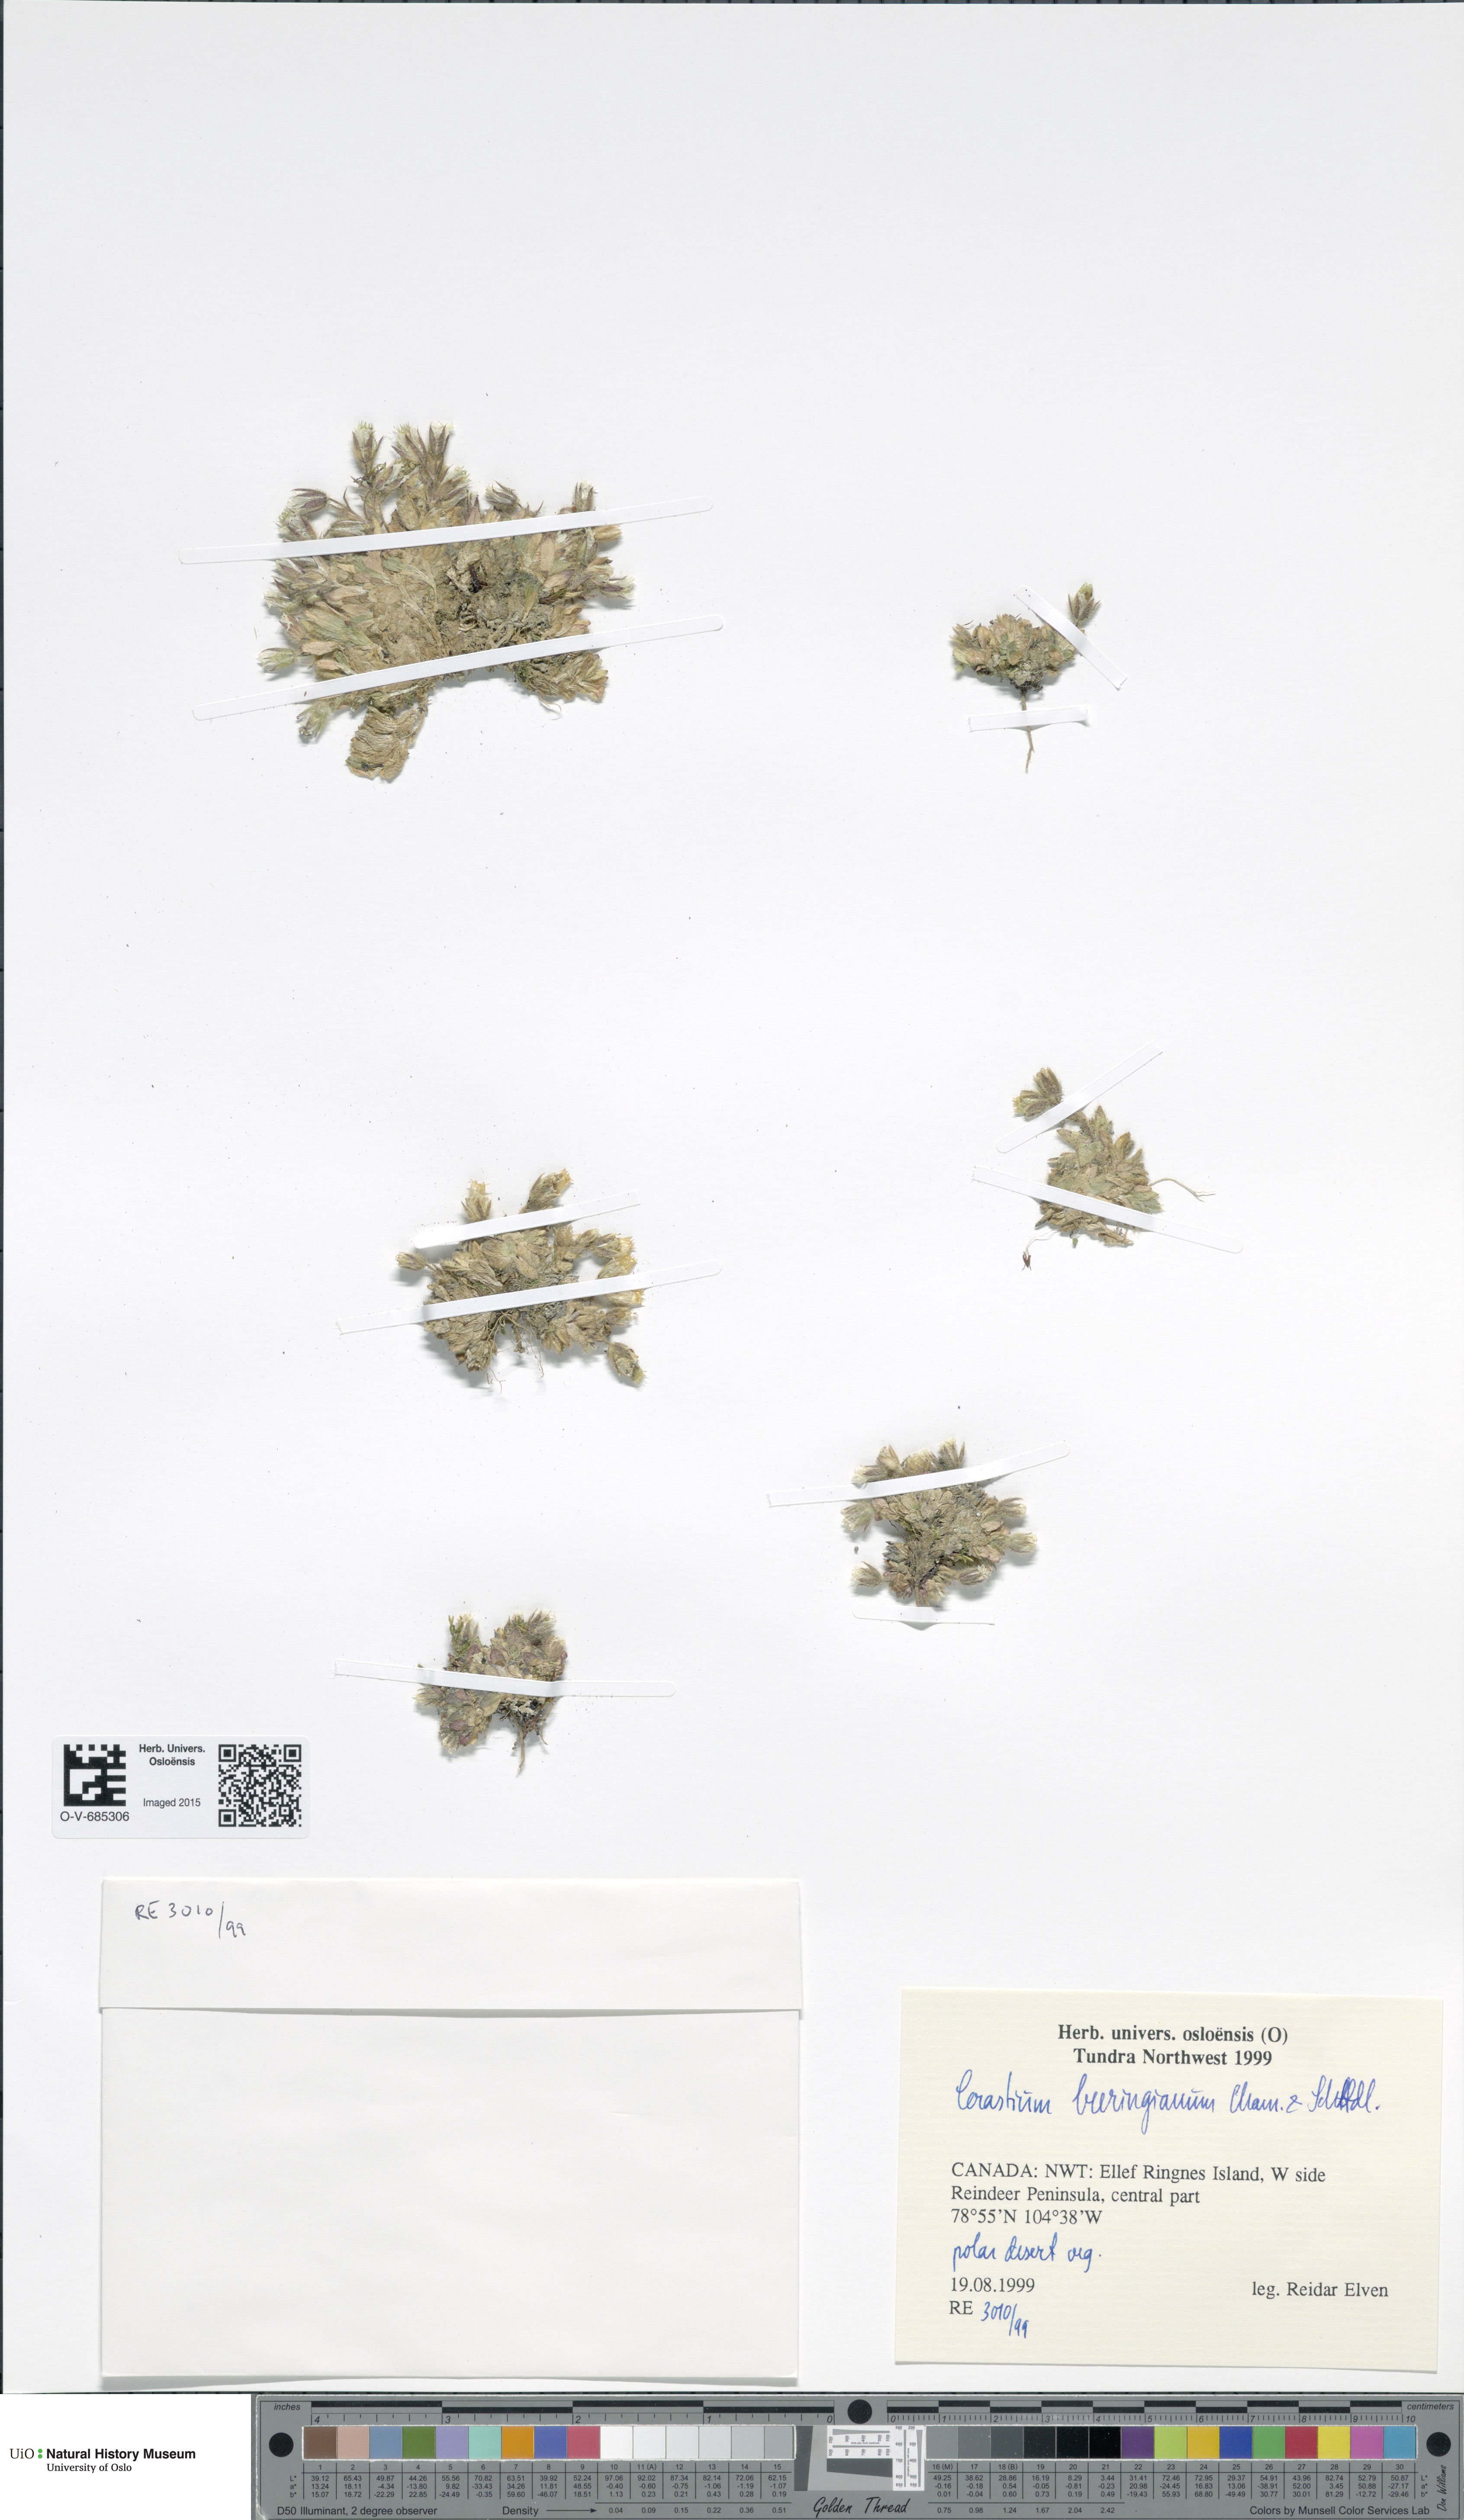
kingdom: Plantae
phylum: Tracheophyta
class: Magnoliopsida
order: Caryophyllales
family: Caryophyllaceae
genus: Cerastium
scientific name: Cerastium beeringianum
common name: Bering mouse-ear chickweed
